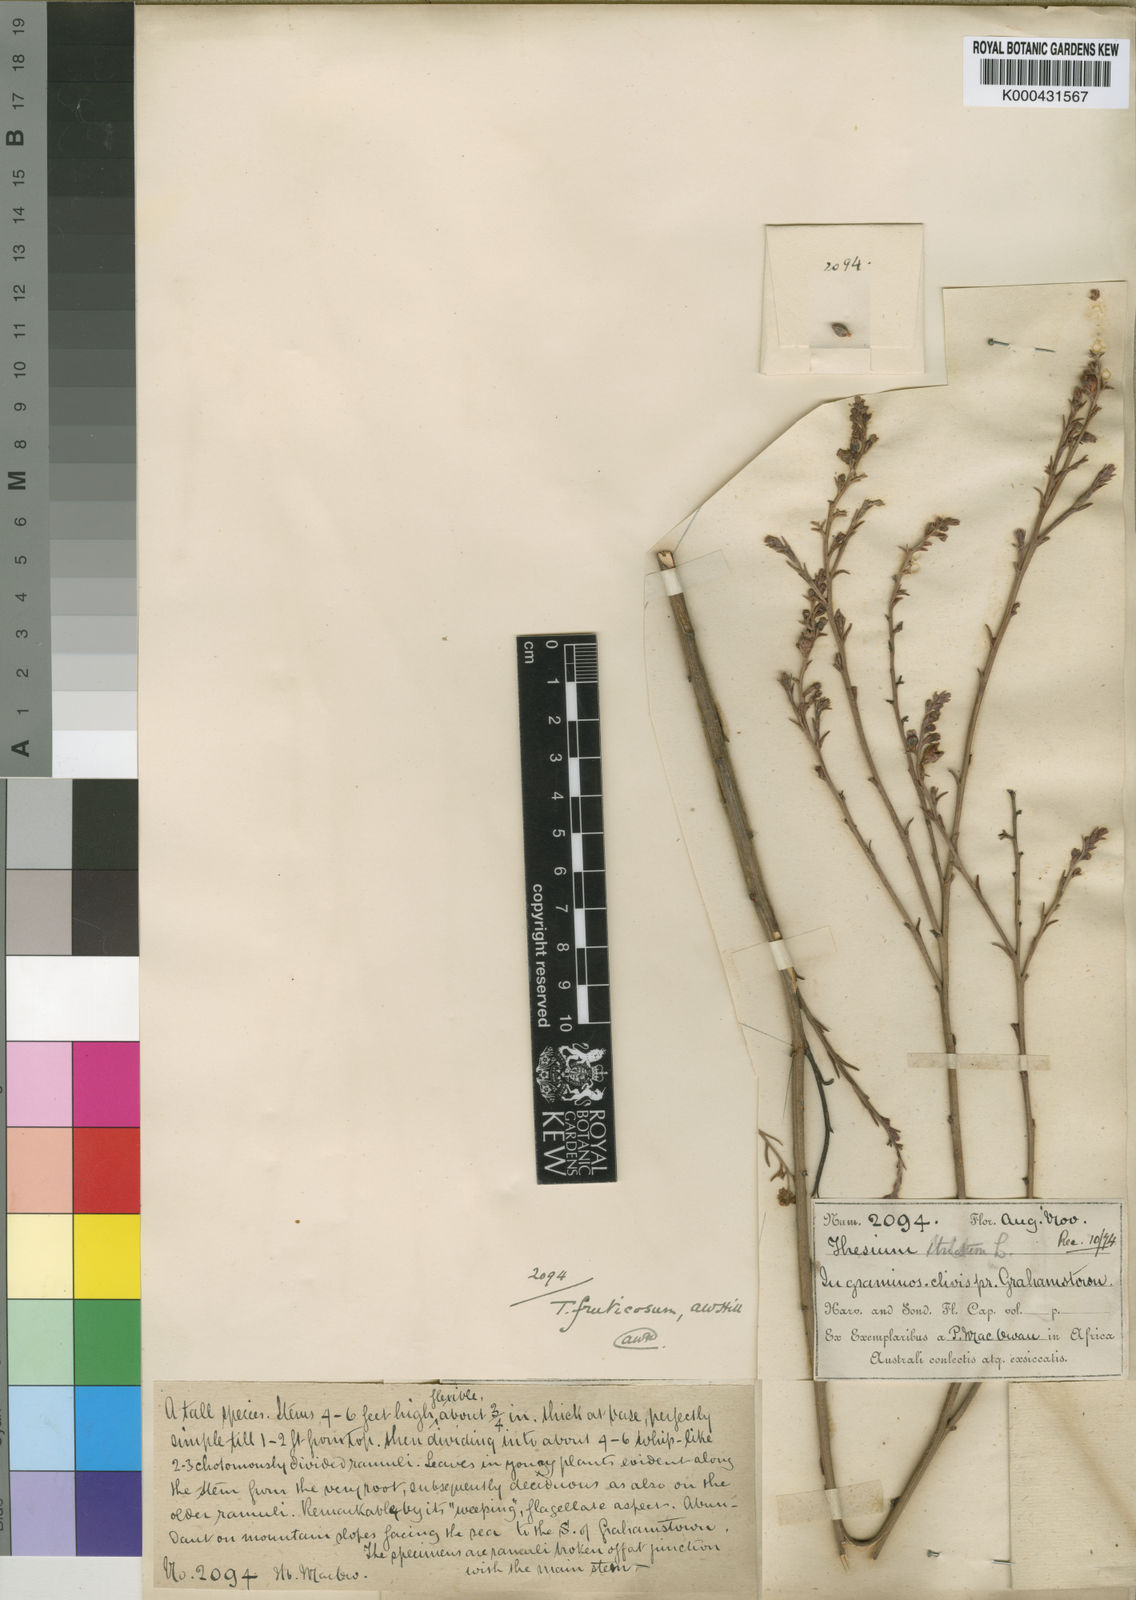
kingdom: Plantae
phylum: Tracheophyta
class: Magnoliopsida
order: Santalales
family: Thesiaceae
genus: Thesium
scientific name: Thesium fruticosum
